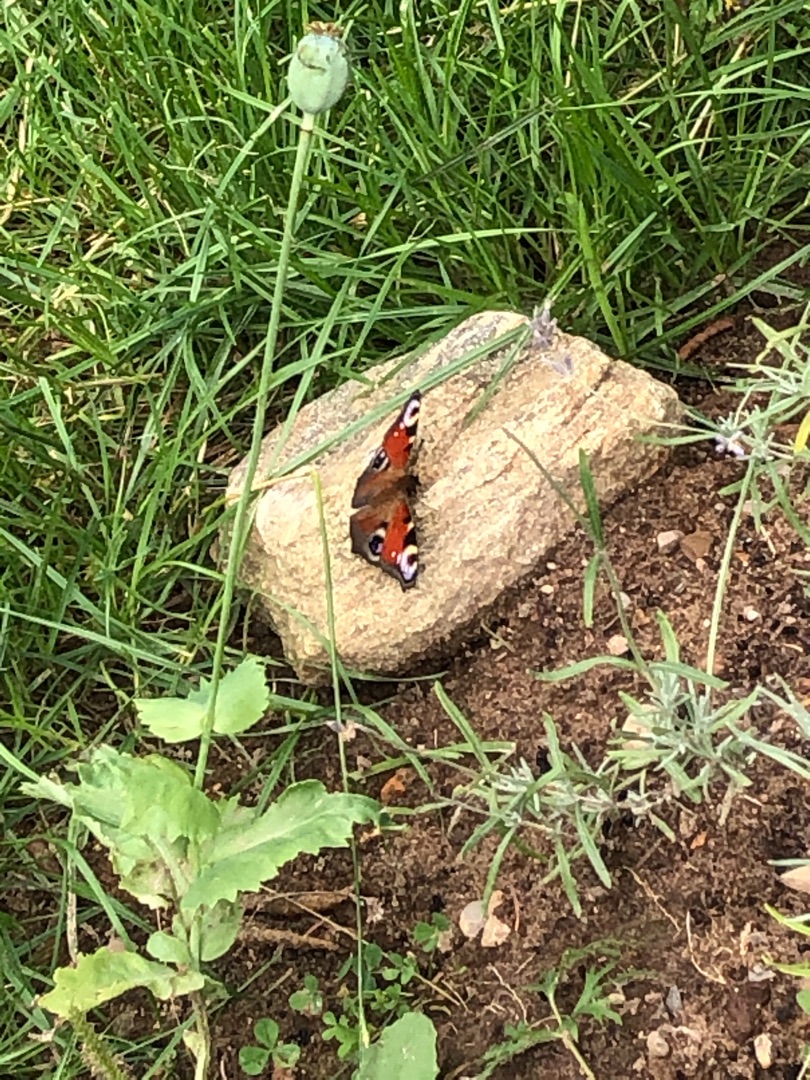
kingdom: Animalia
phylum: Arthropoda
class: Insecta
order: Lepidoptera
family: Nymphalidae
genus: Aglais
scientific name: Aglais io
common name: Dagpåfugleøje
